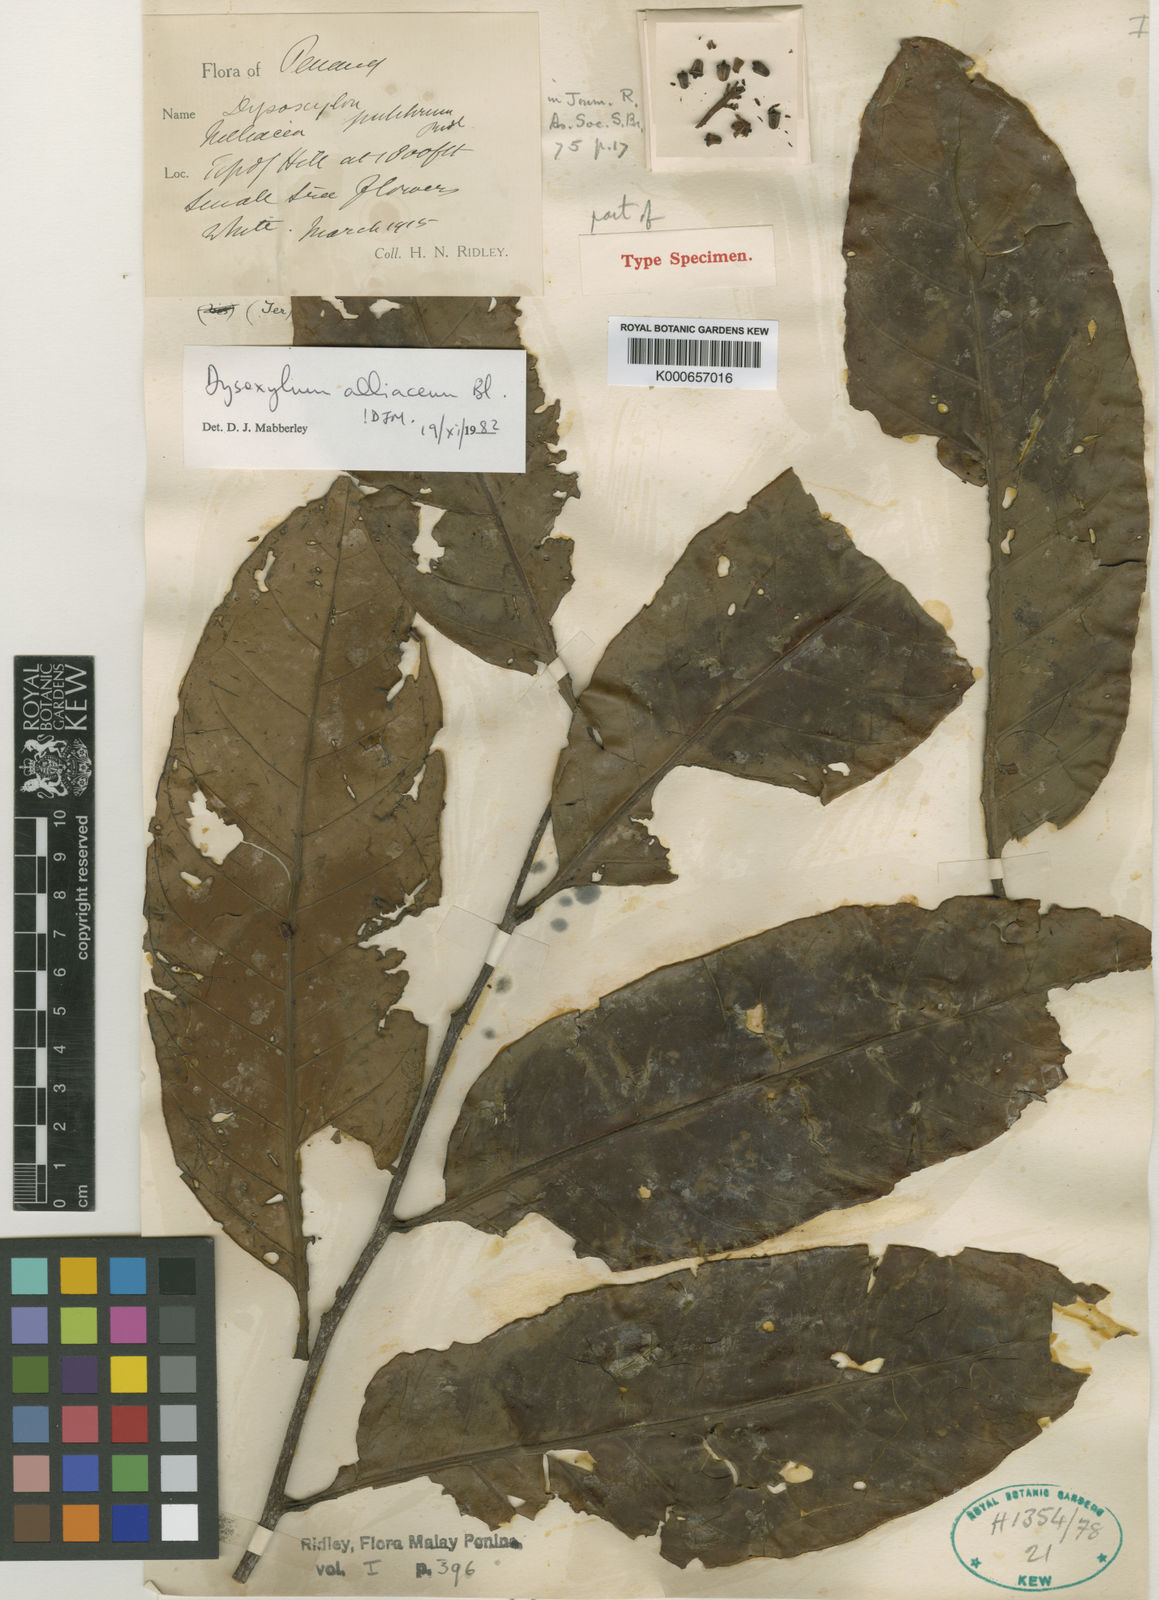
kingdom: Plantae
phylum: Tracheophyta
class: Magnoliopsida
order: Sapindales
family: Meliaceae
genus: Prasoxylon
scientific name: Prasoxylon alliaceum
